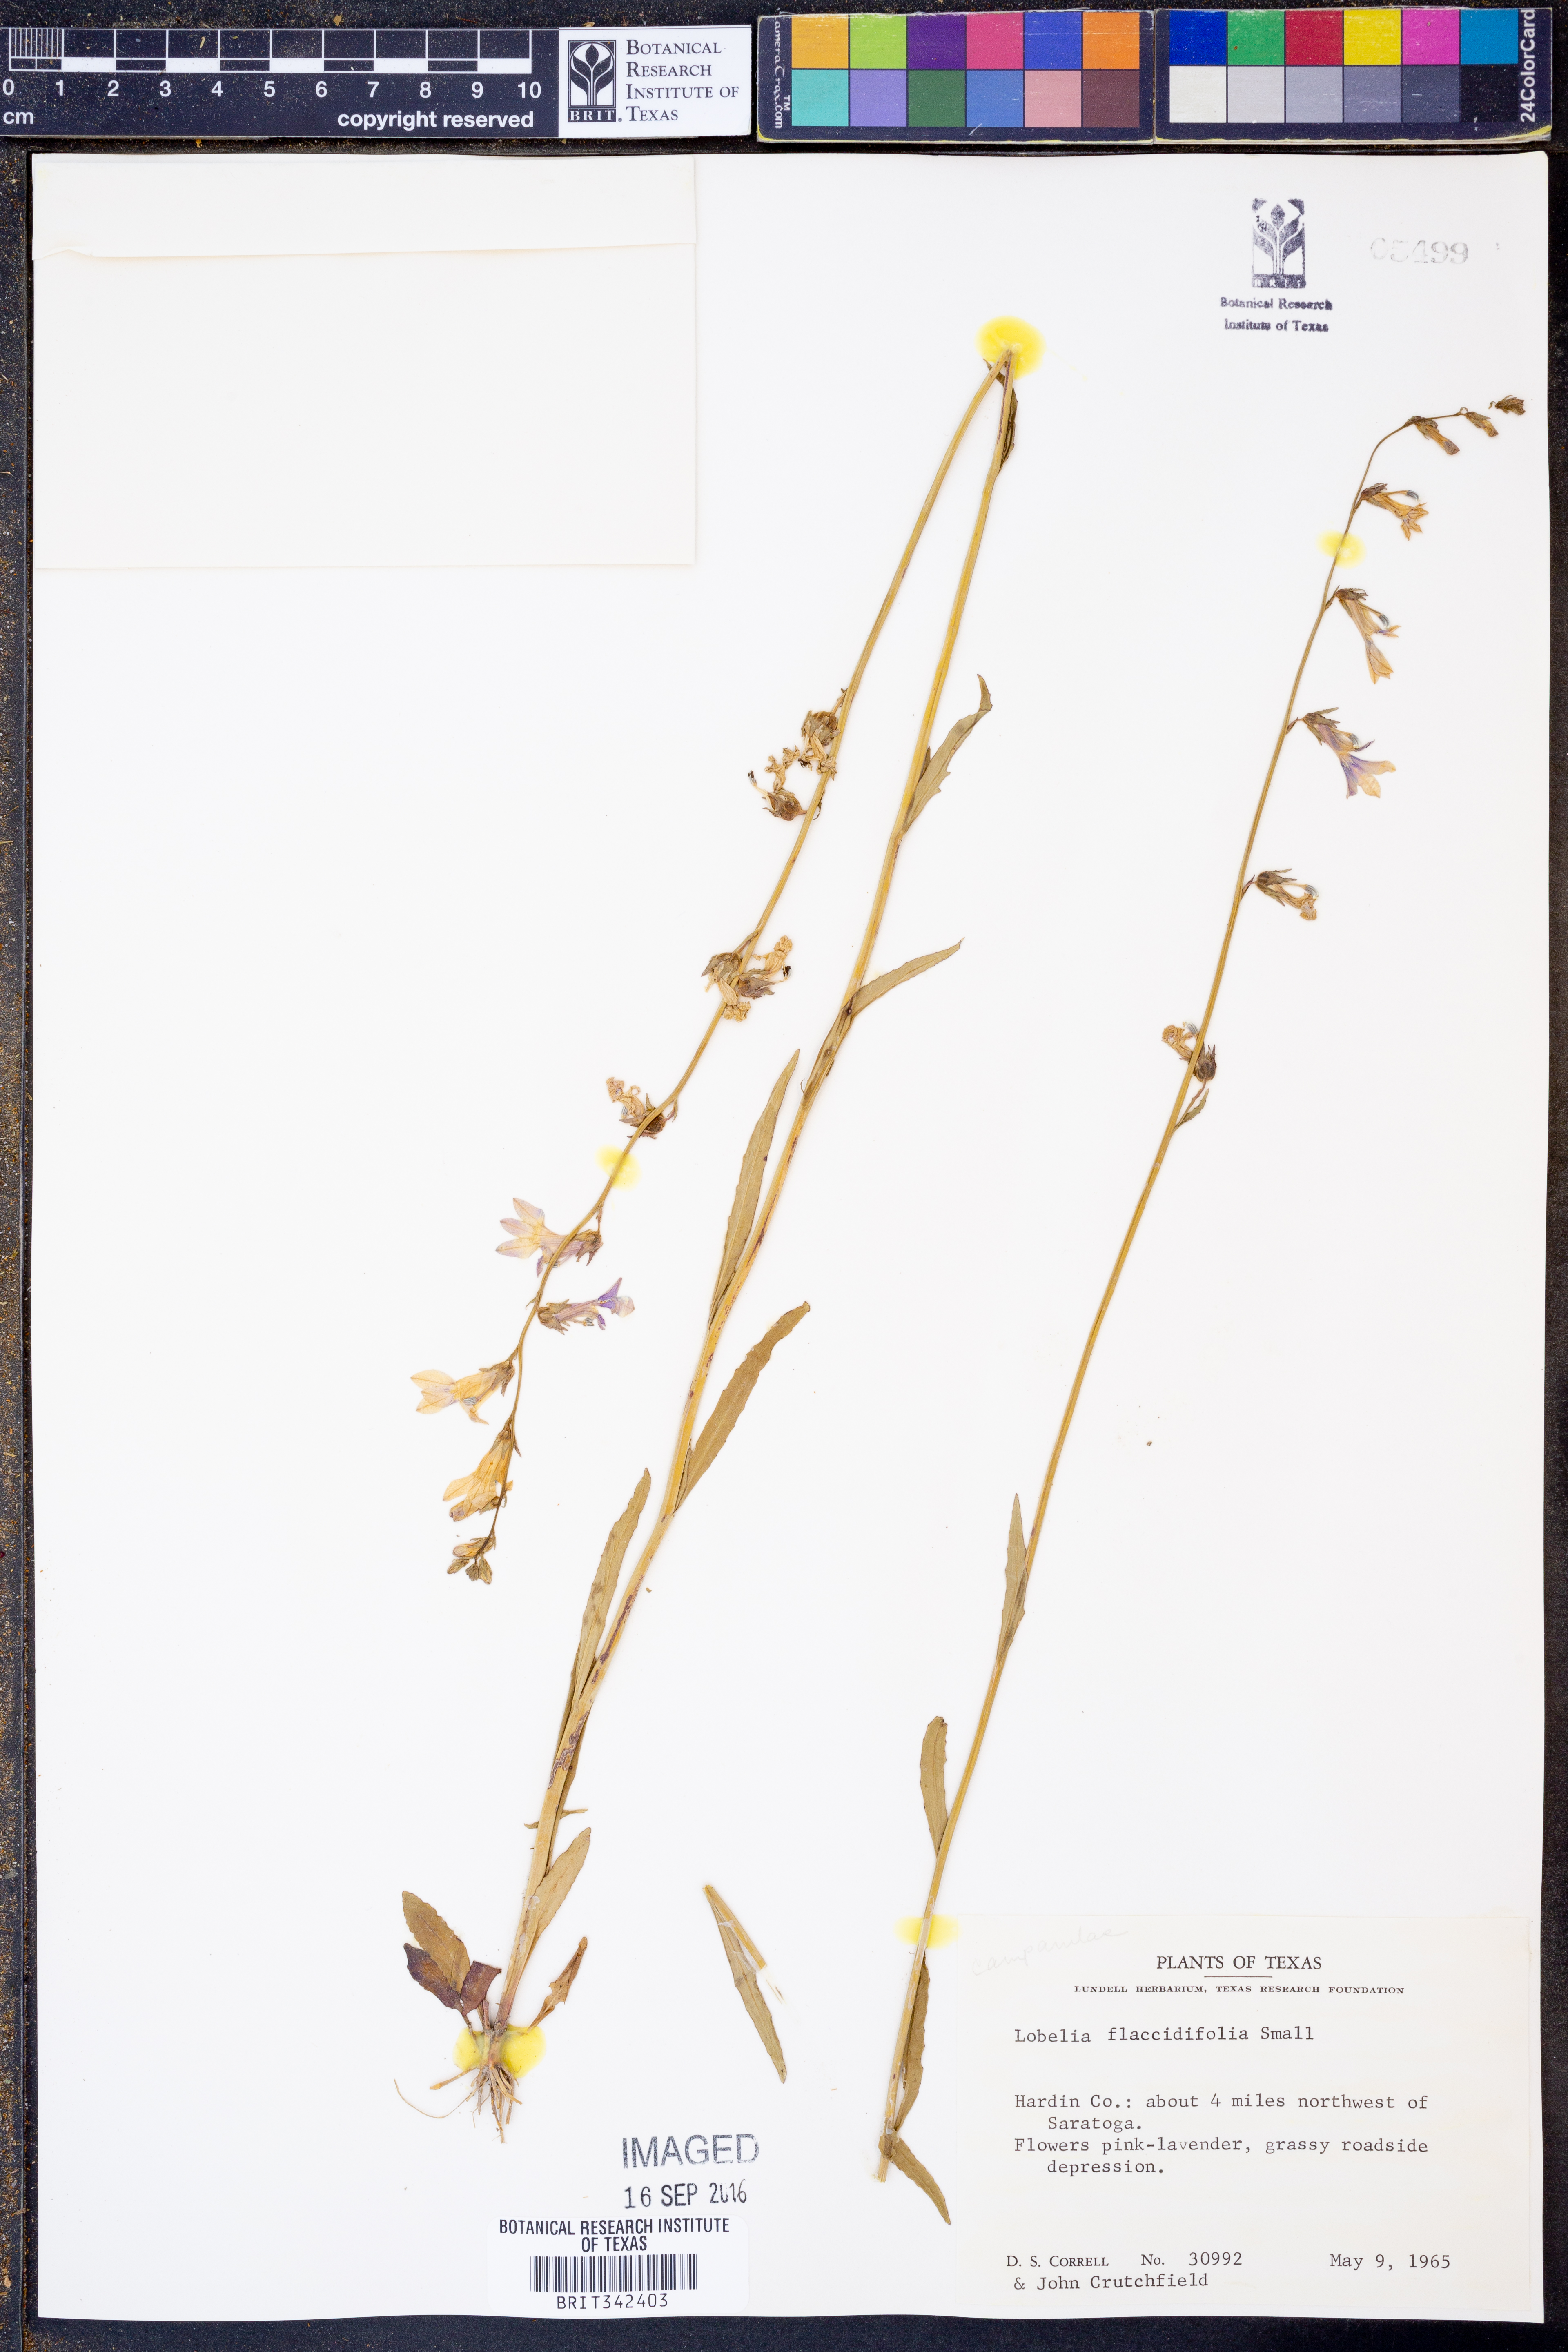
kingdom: Plantae
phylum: Tracheophyta
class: Magnoliopsida
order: Asterales
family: Campanulaceae
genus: Lobelia
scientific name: Lobelia flaccidifolia
